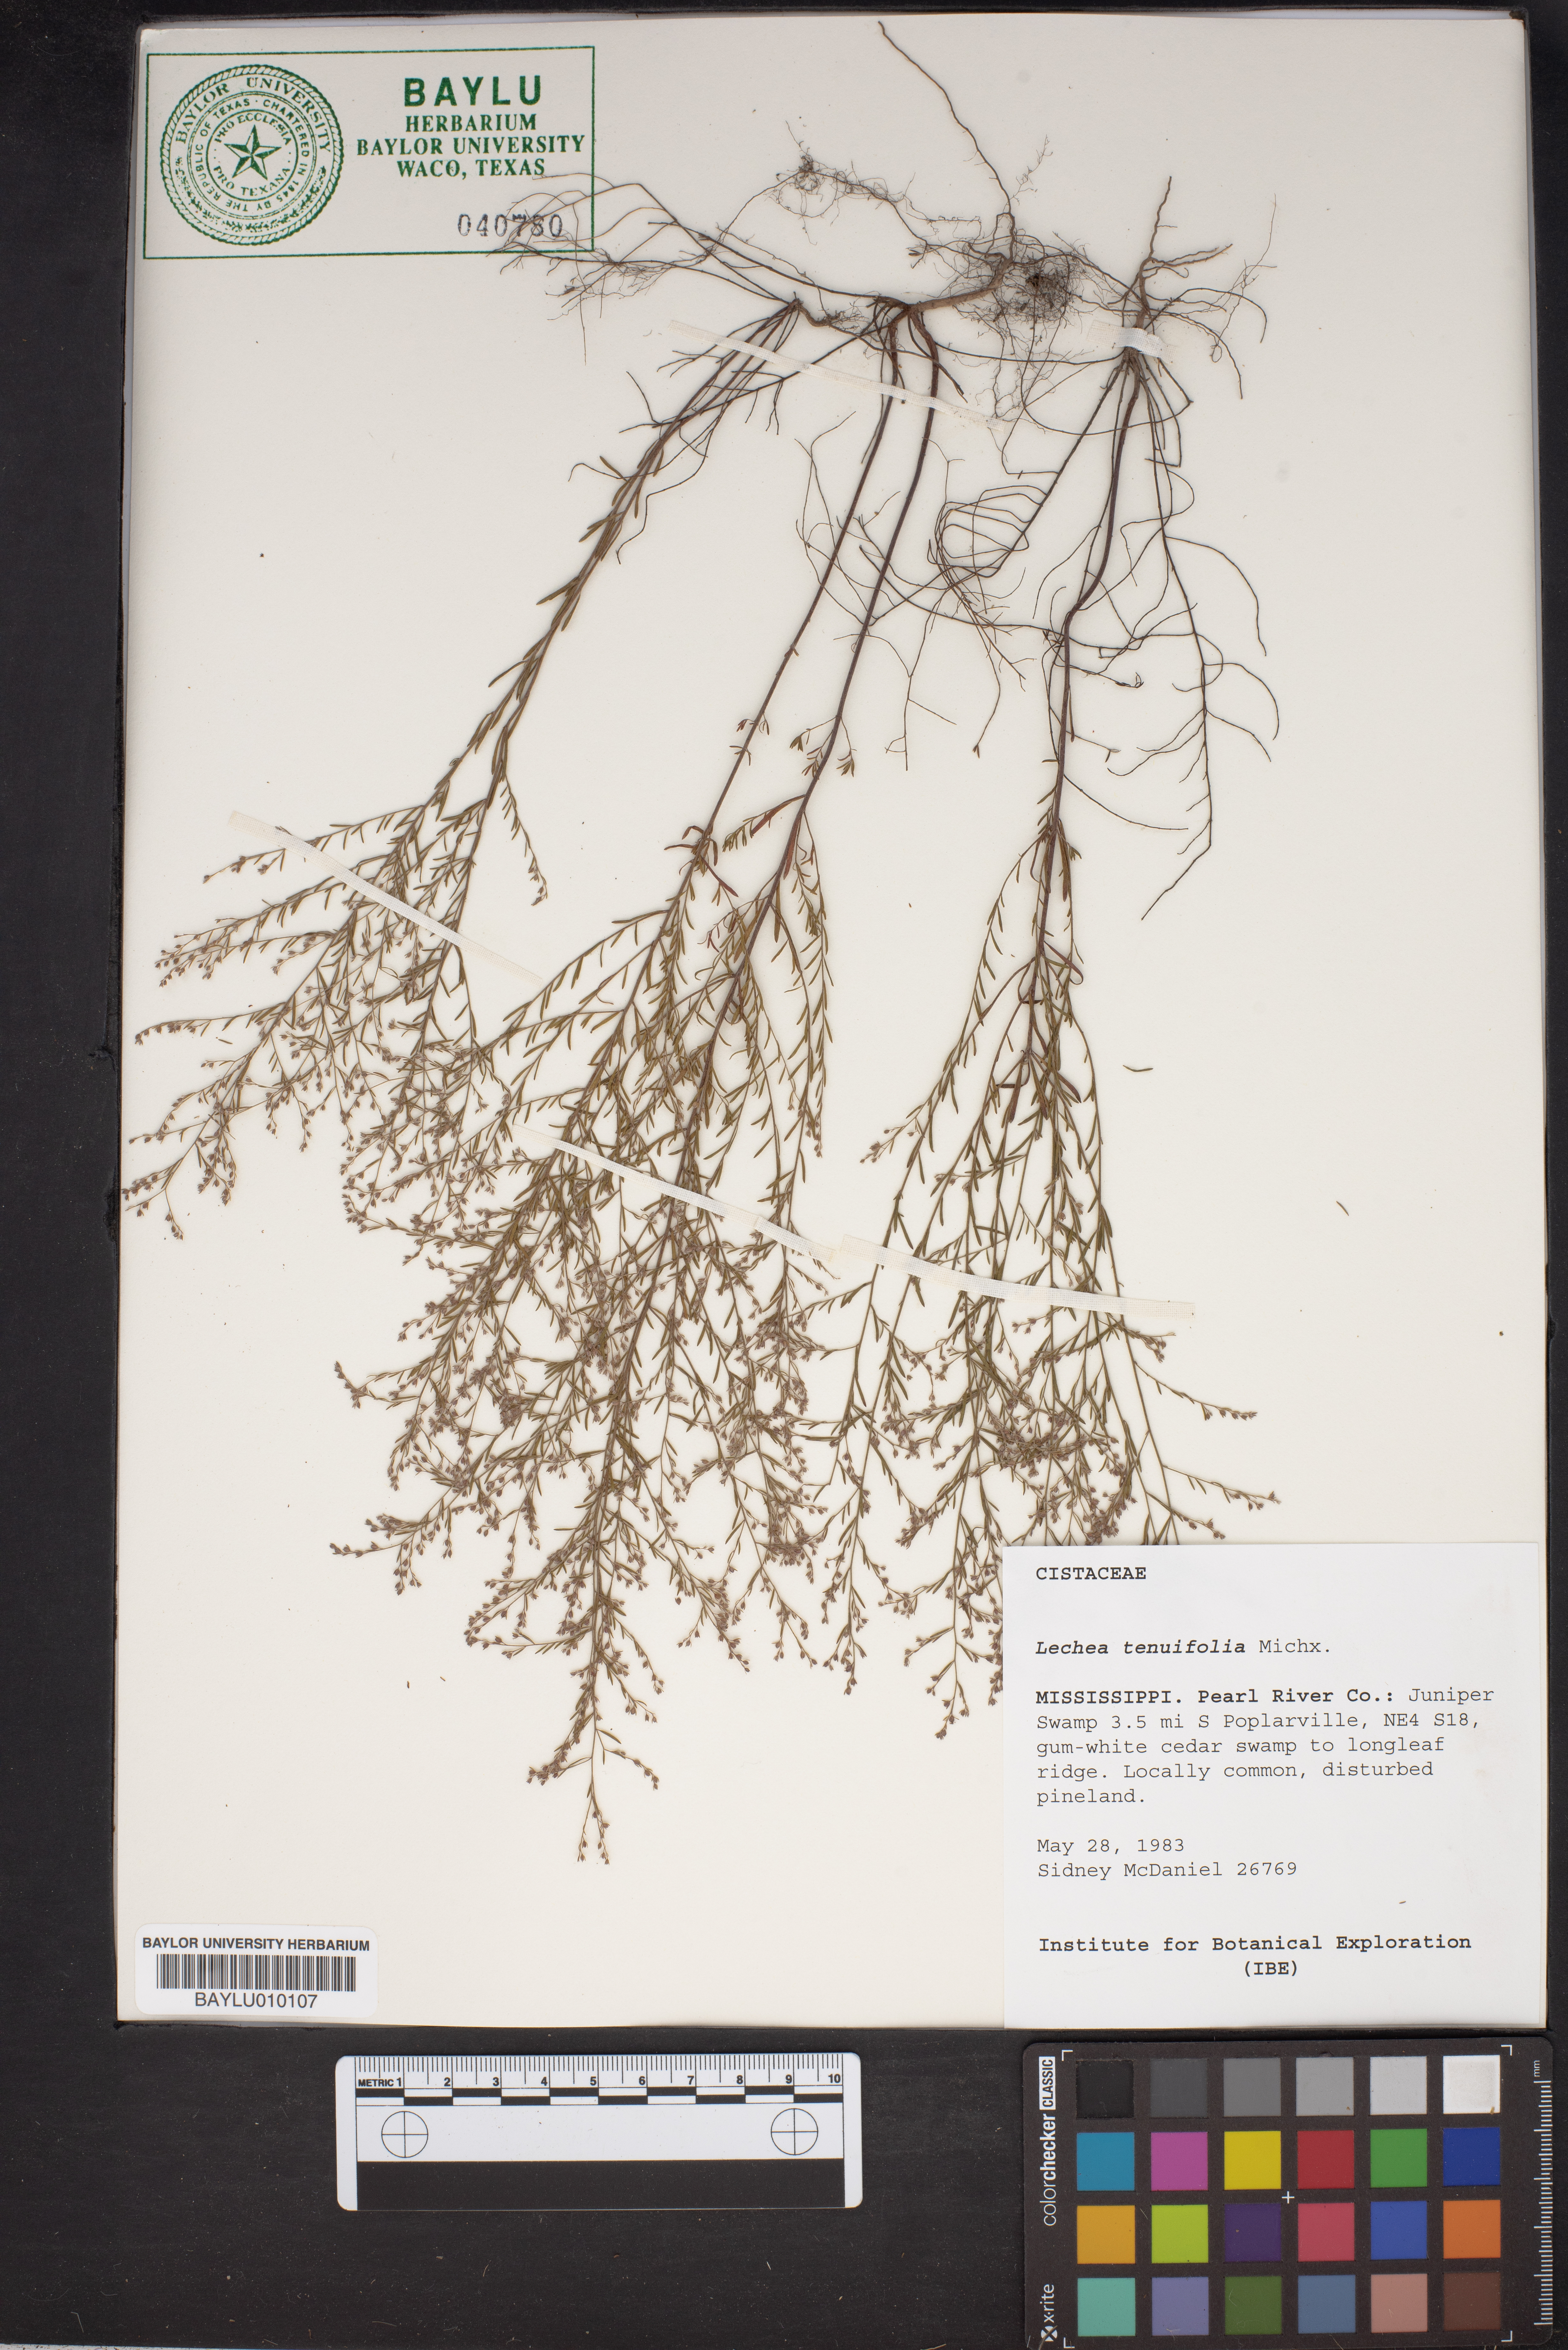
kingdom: Plantae
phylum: Tracheophyta
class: Magnoliopsida
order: Malvales
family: Cistaceae
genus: Lechea
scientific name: Lechea tenuifolia
